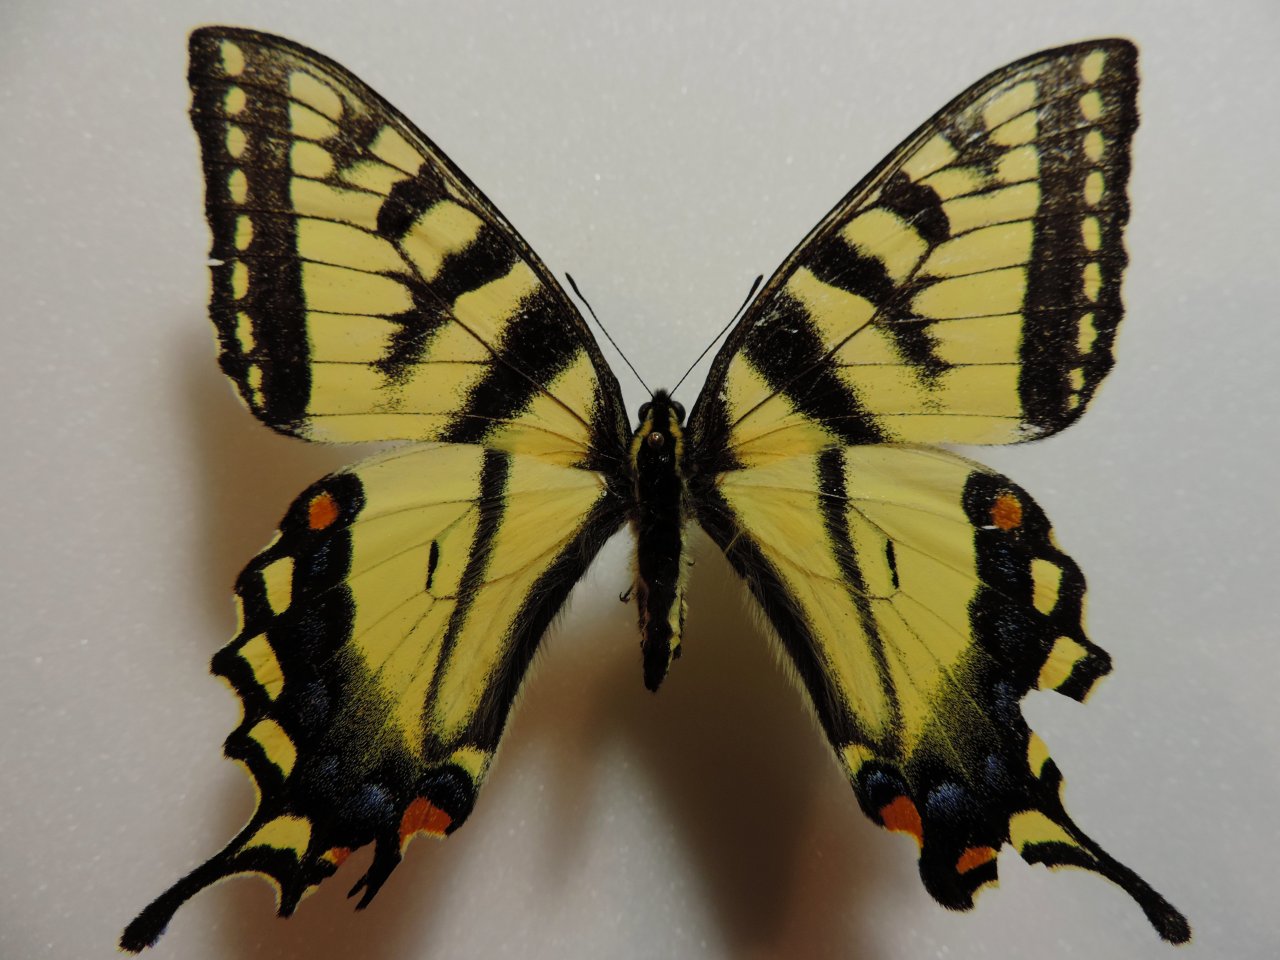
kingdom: Animalia
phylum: Arthropoda
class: Insecta
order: Lepidoptera
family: Papilionidae
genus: Pterourus
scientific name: Pterourus canadensis
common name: Canadian Tiger Swallowtail
